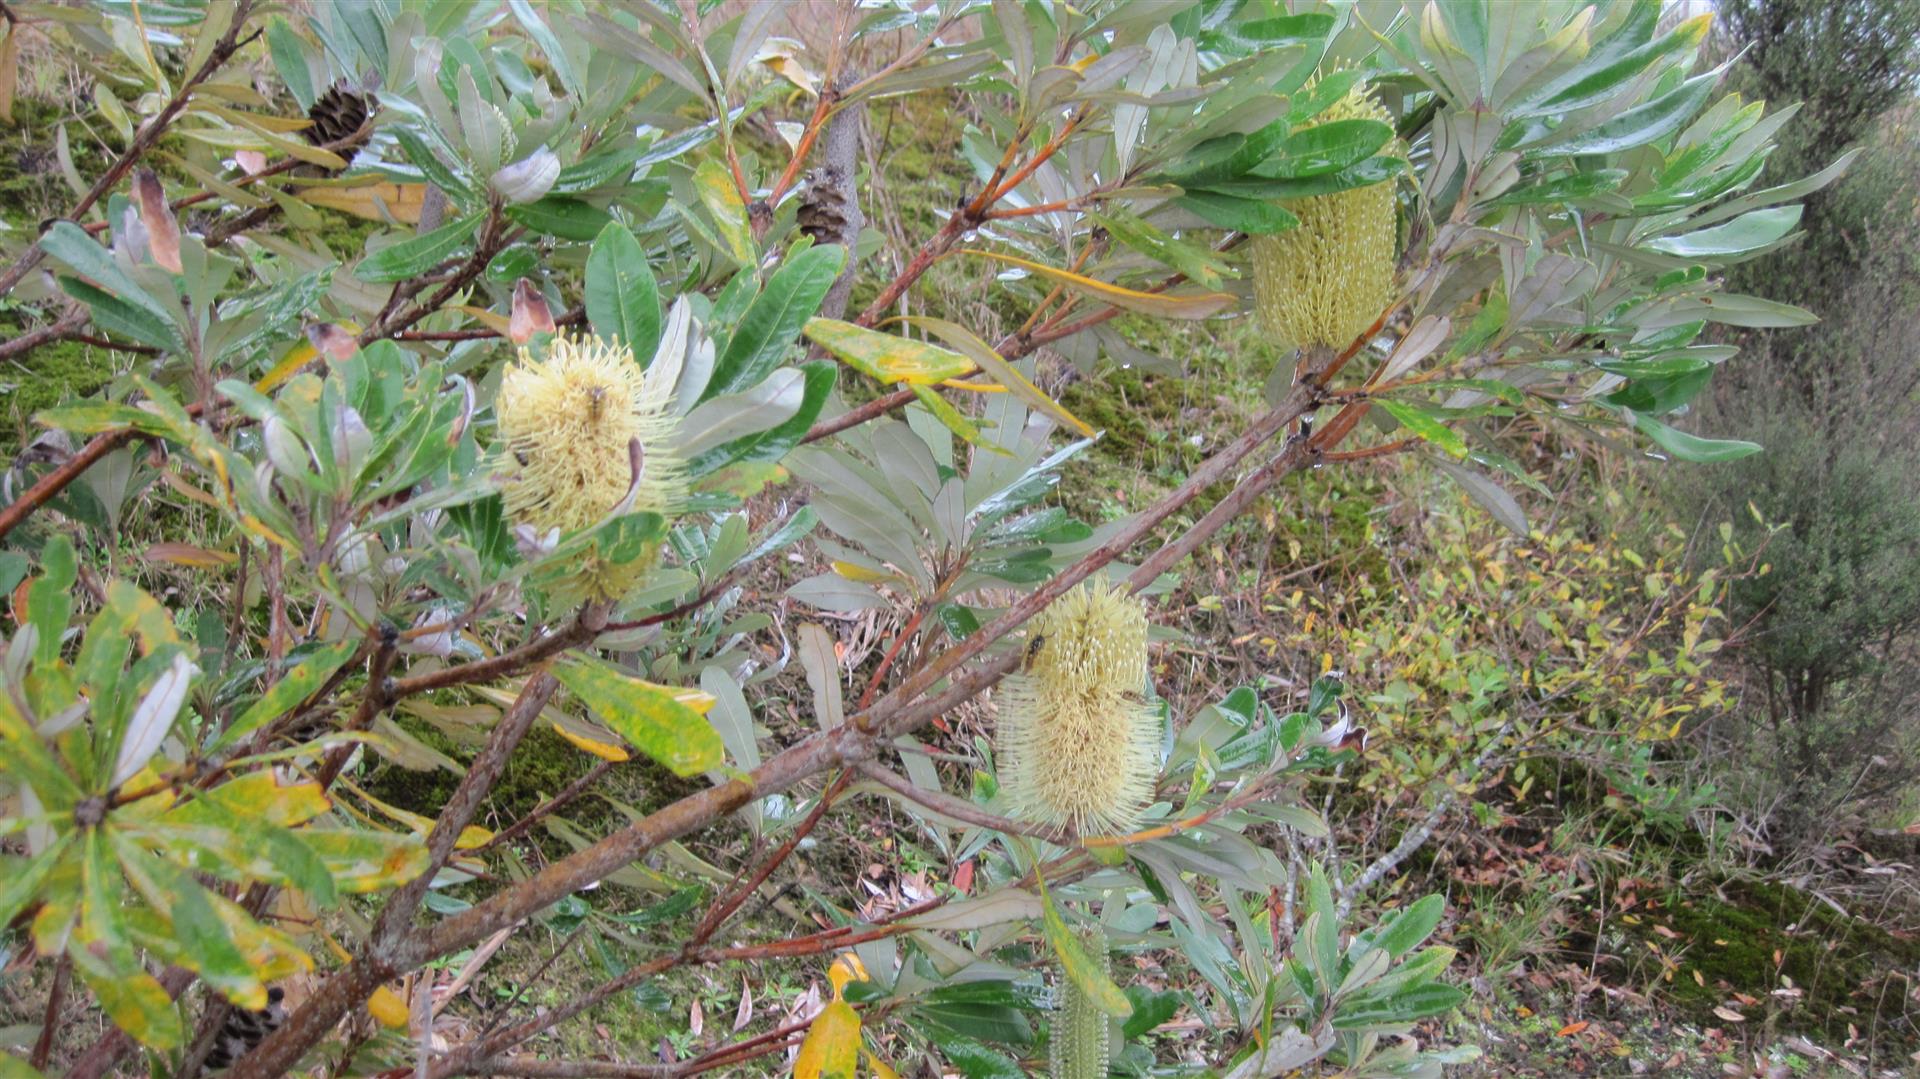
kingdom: Plantae
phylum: Tracheophyta
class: Magnoliopsida
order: Proteales
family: Proteaceae
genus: Banksia
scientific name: Banksia integrifolia
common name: White-honeysuckle
